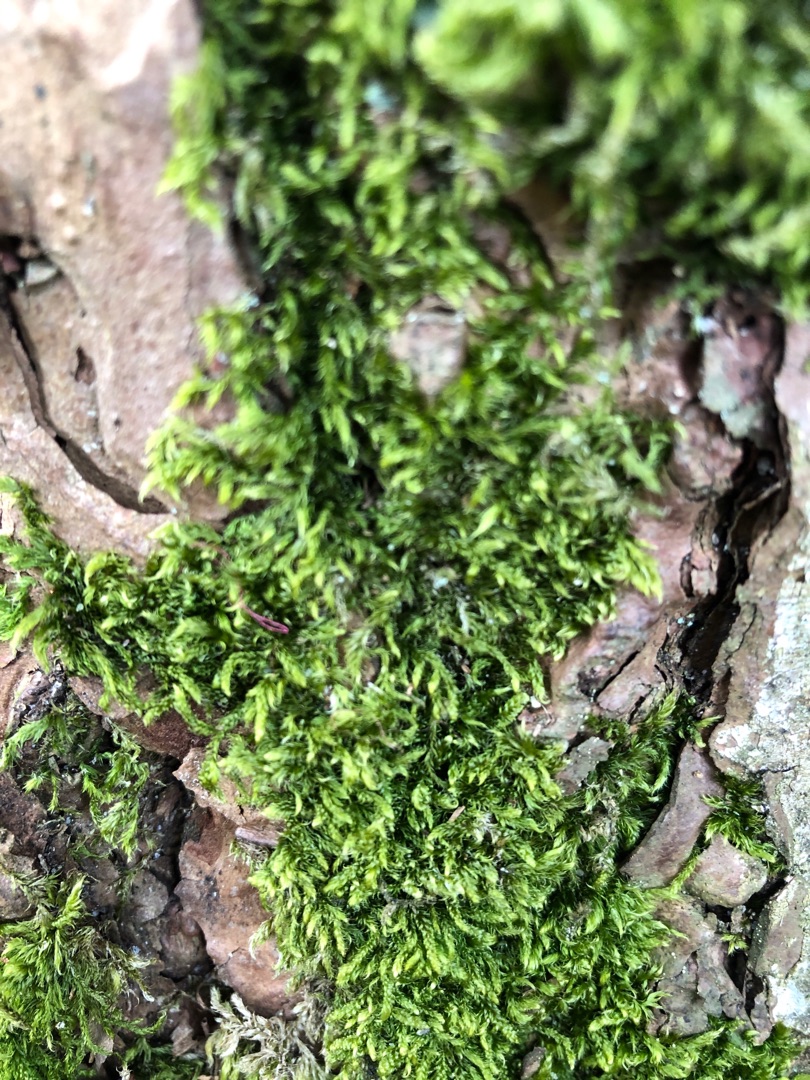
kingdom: Plantae
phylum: Bryophyta
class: Bryopsida
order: Hypnales
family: Hypnaceae
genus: Hypnum
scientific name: Hypnum
